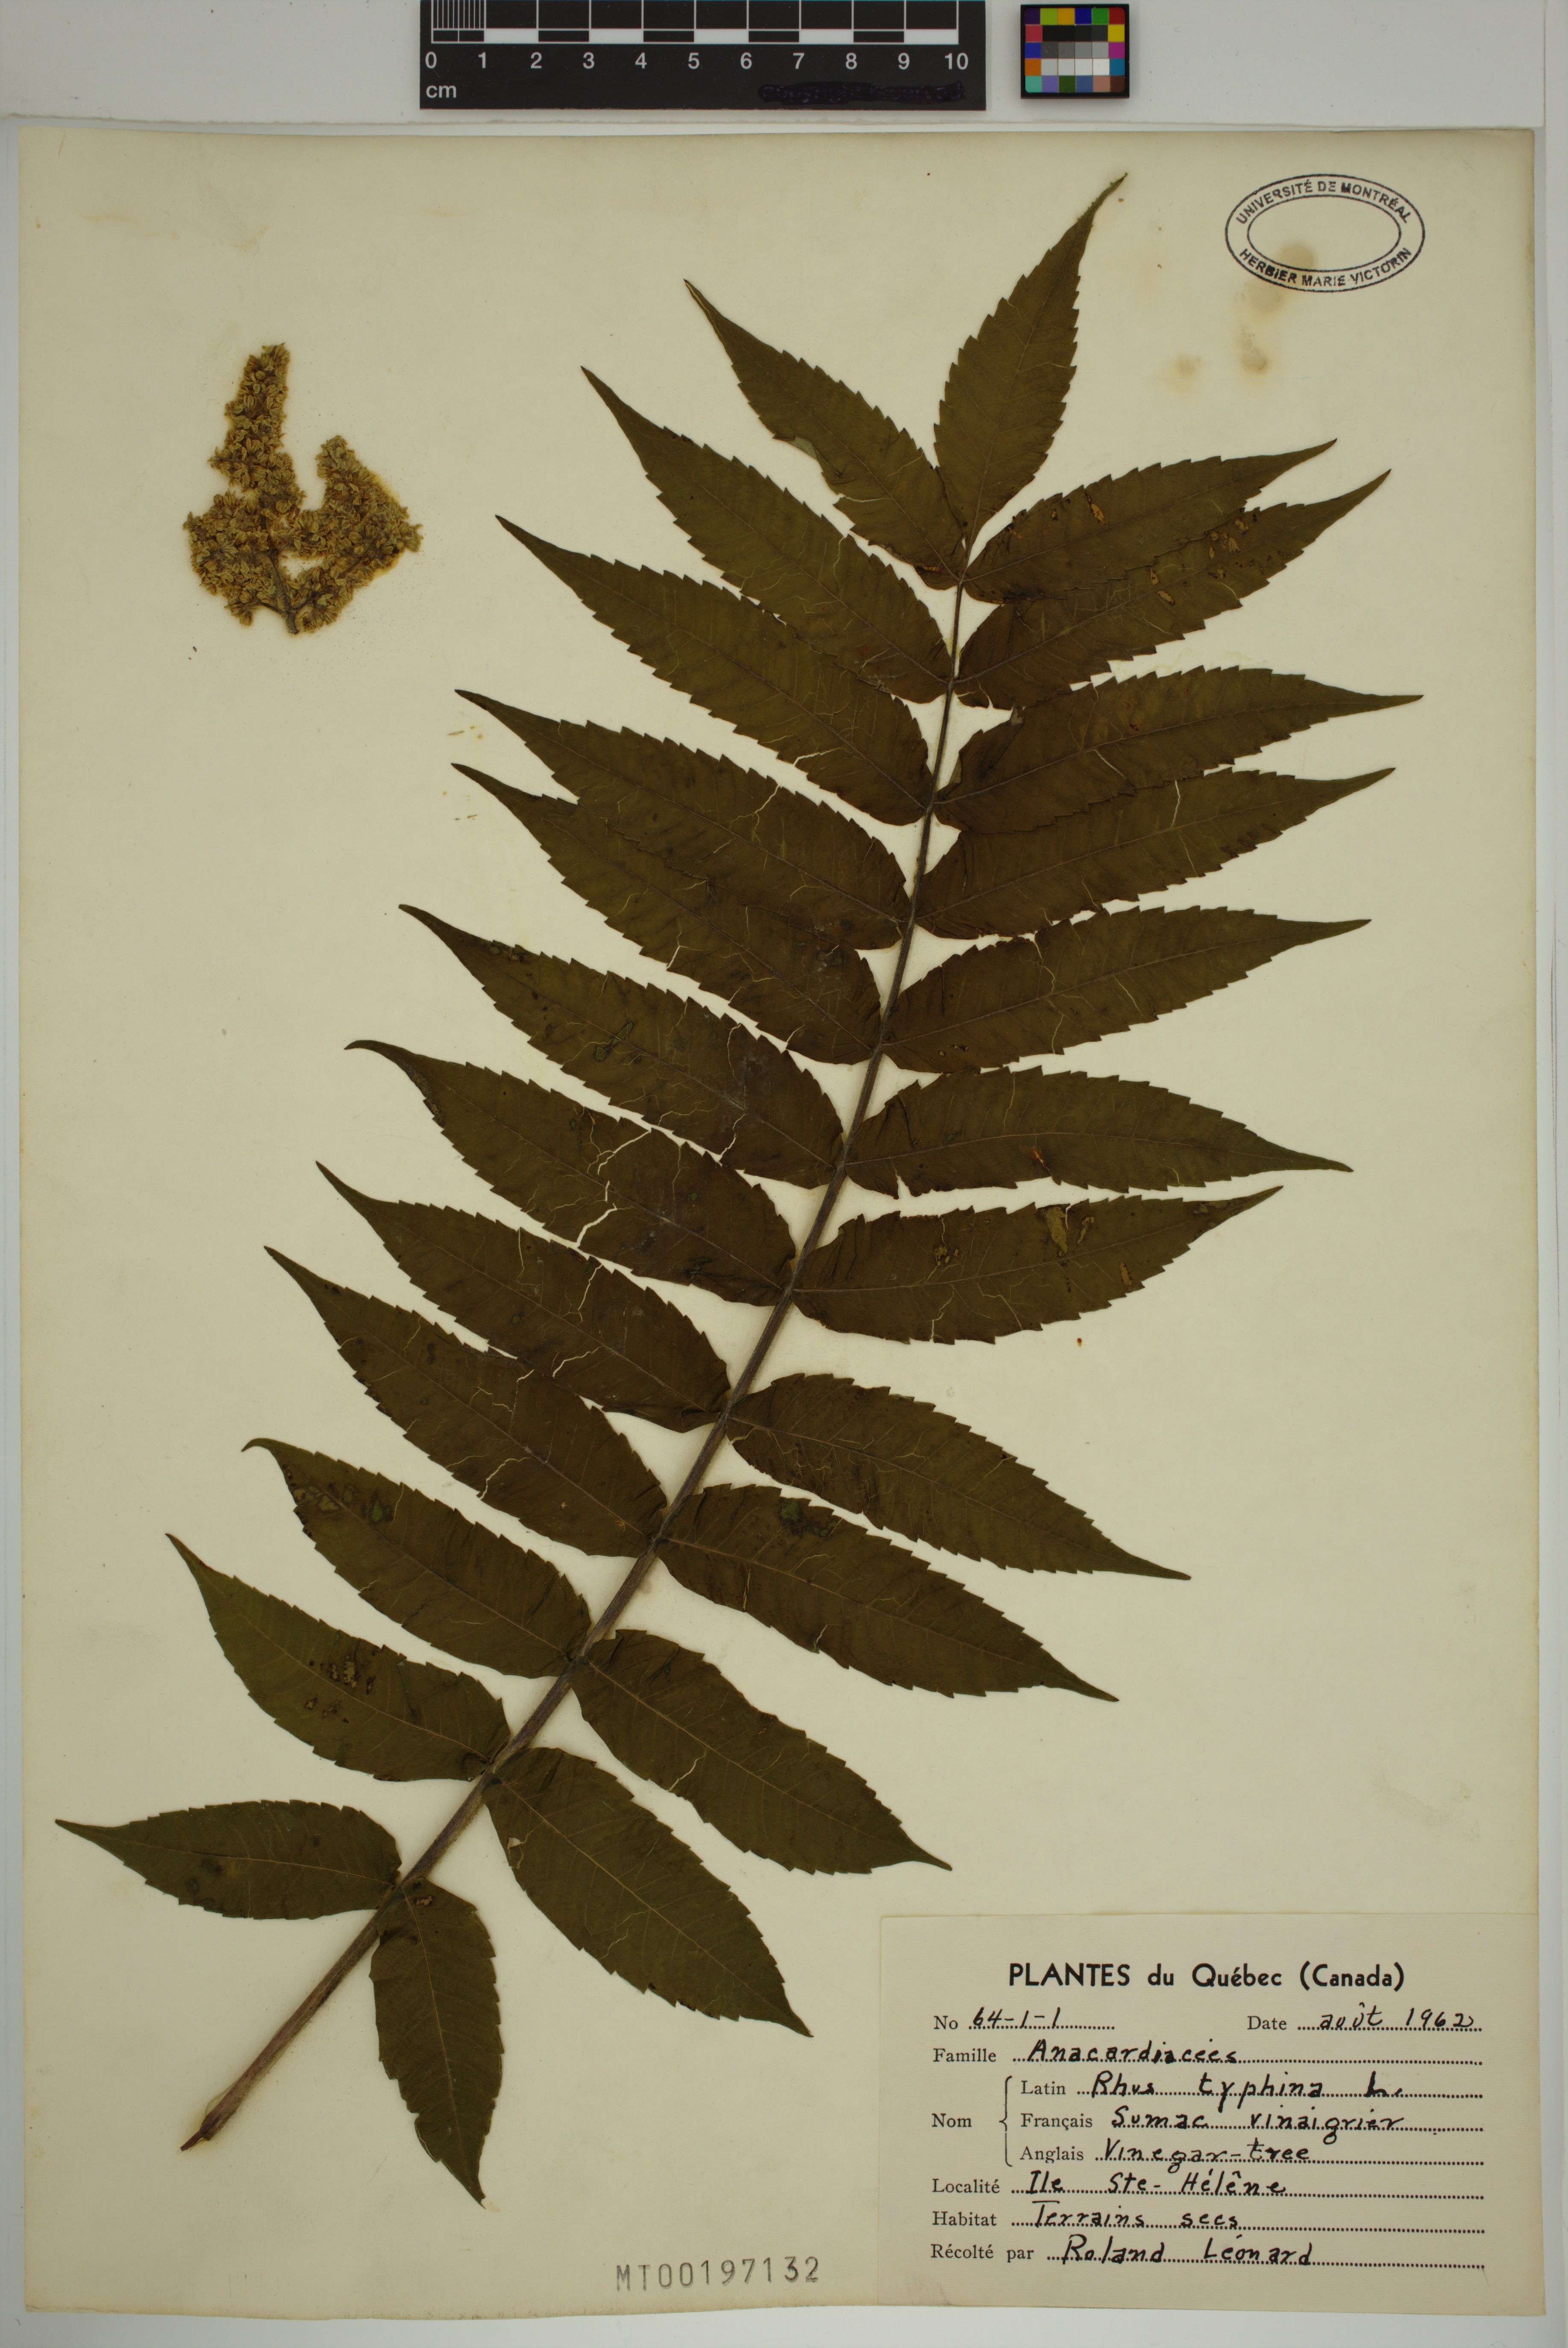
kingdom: Plantae
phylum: Tracheophyta
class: Magnoliopsida
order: Sapindales
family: Anacardiaceae
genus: Rhus
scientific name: Rhus typhina
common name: Staghorn sumac
